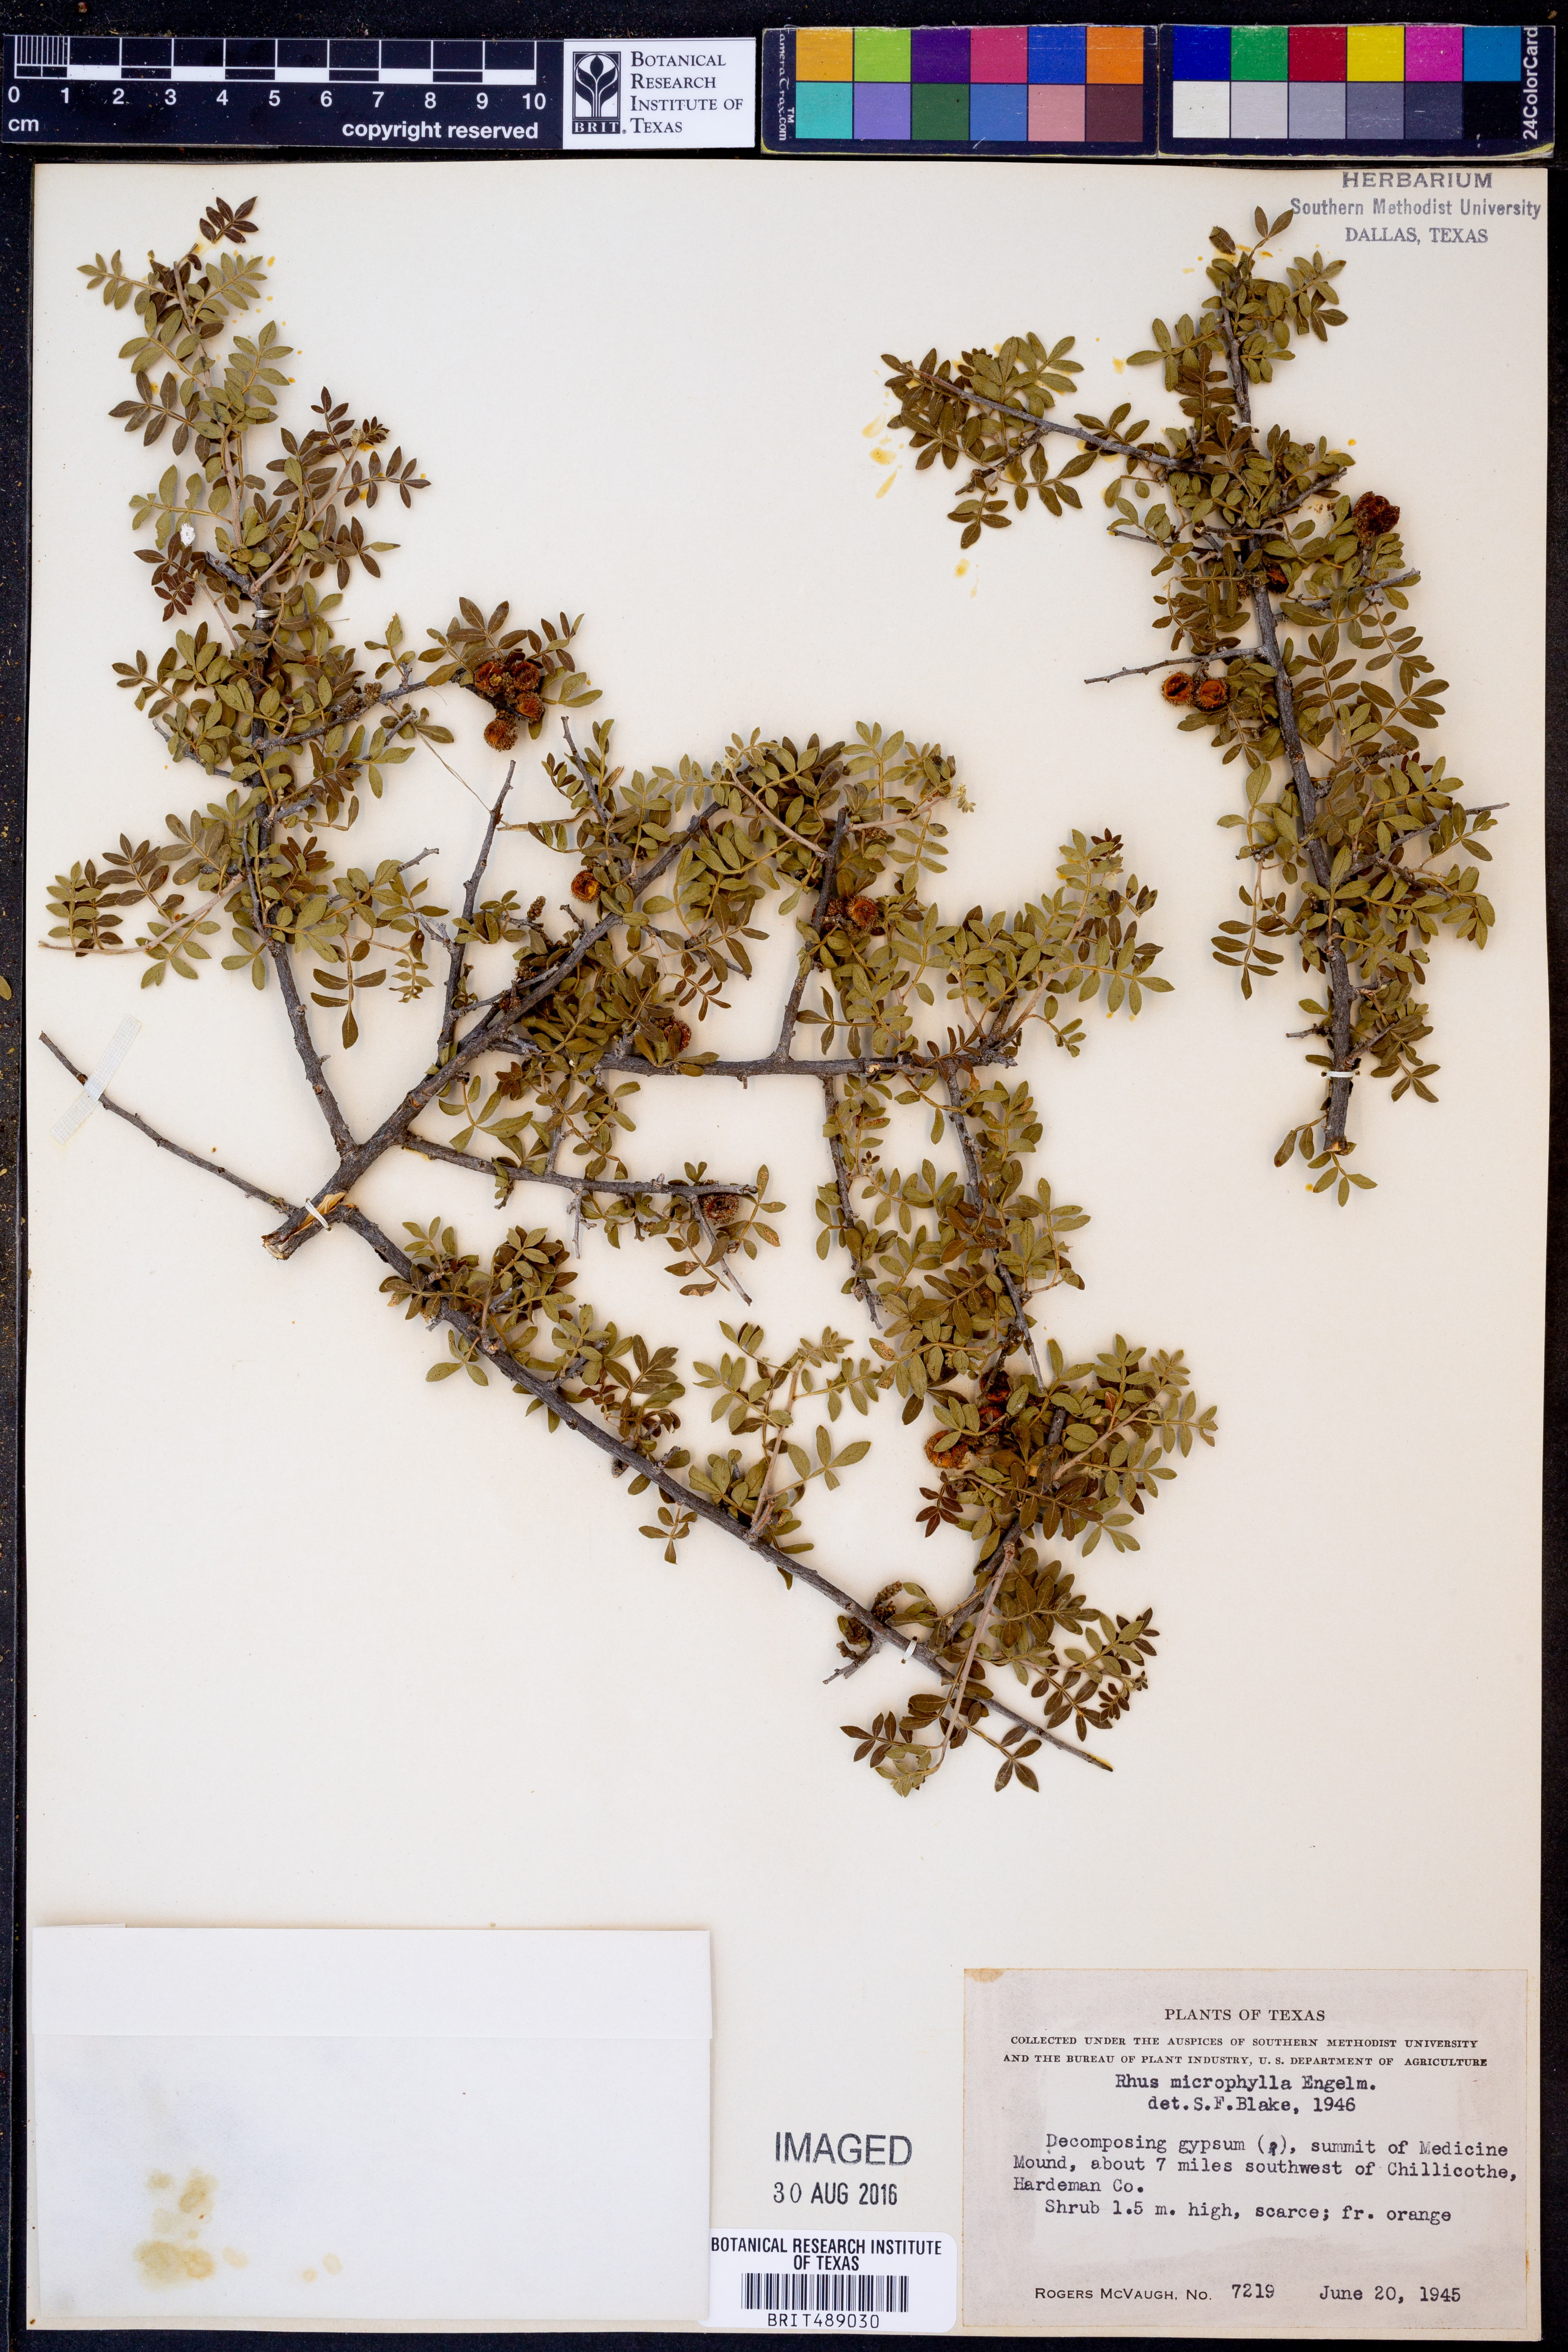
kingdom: Plantae
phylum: Tracheophyta
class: Magnoliopsida
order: Sapindales
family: Anacardiaceae
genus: Rhus
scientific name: Rhus microphylla
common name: Desert sumac
